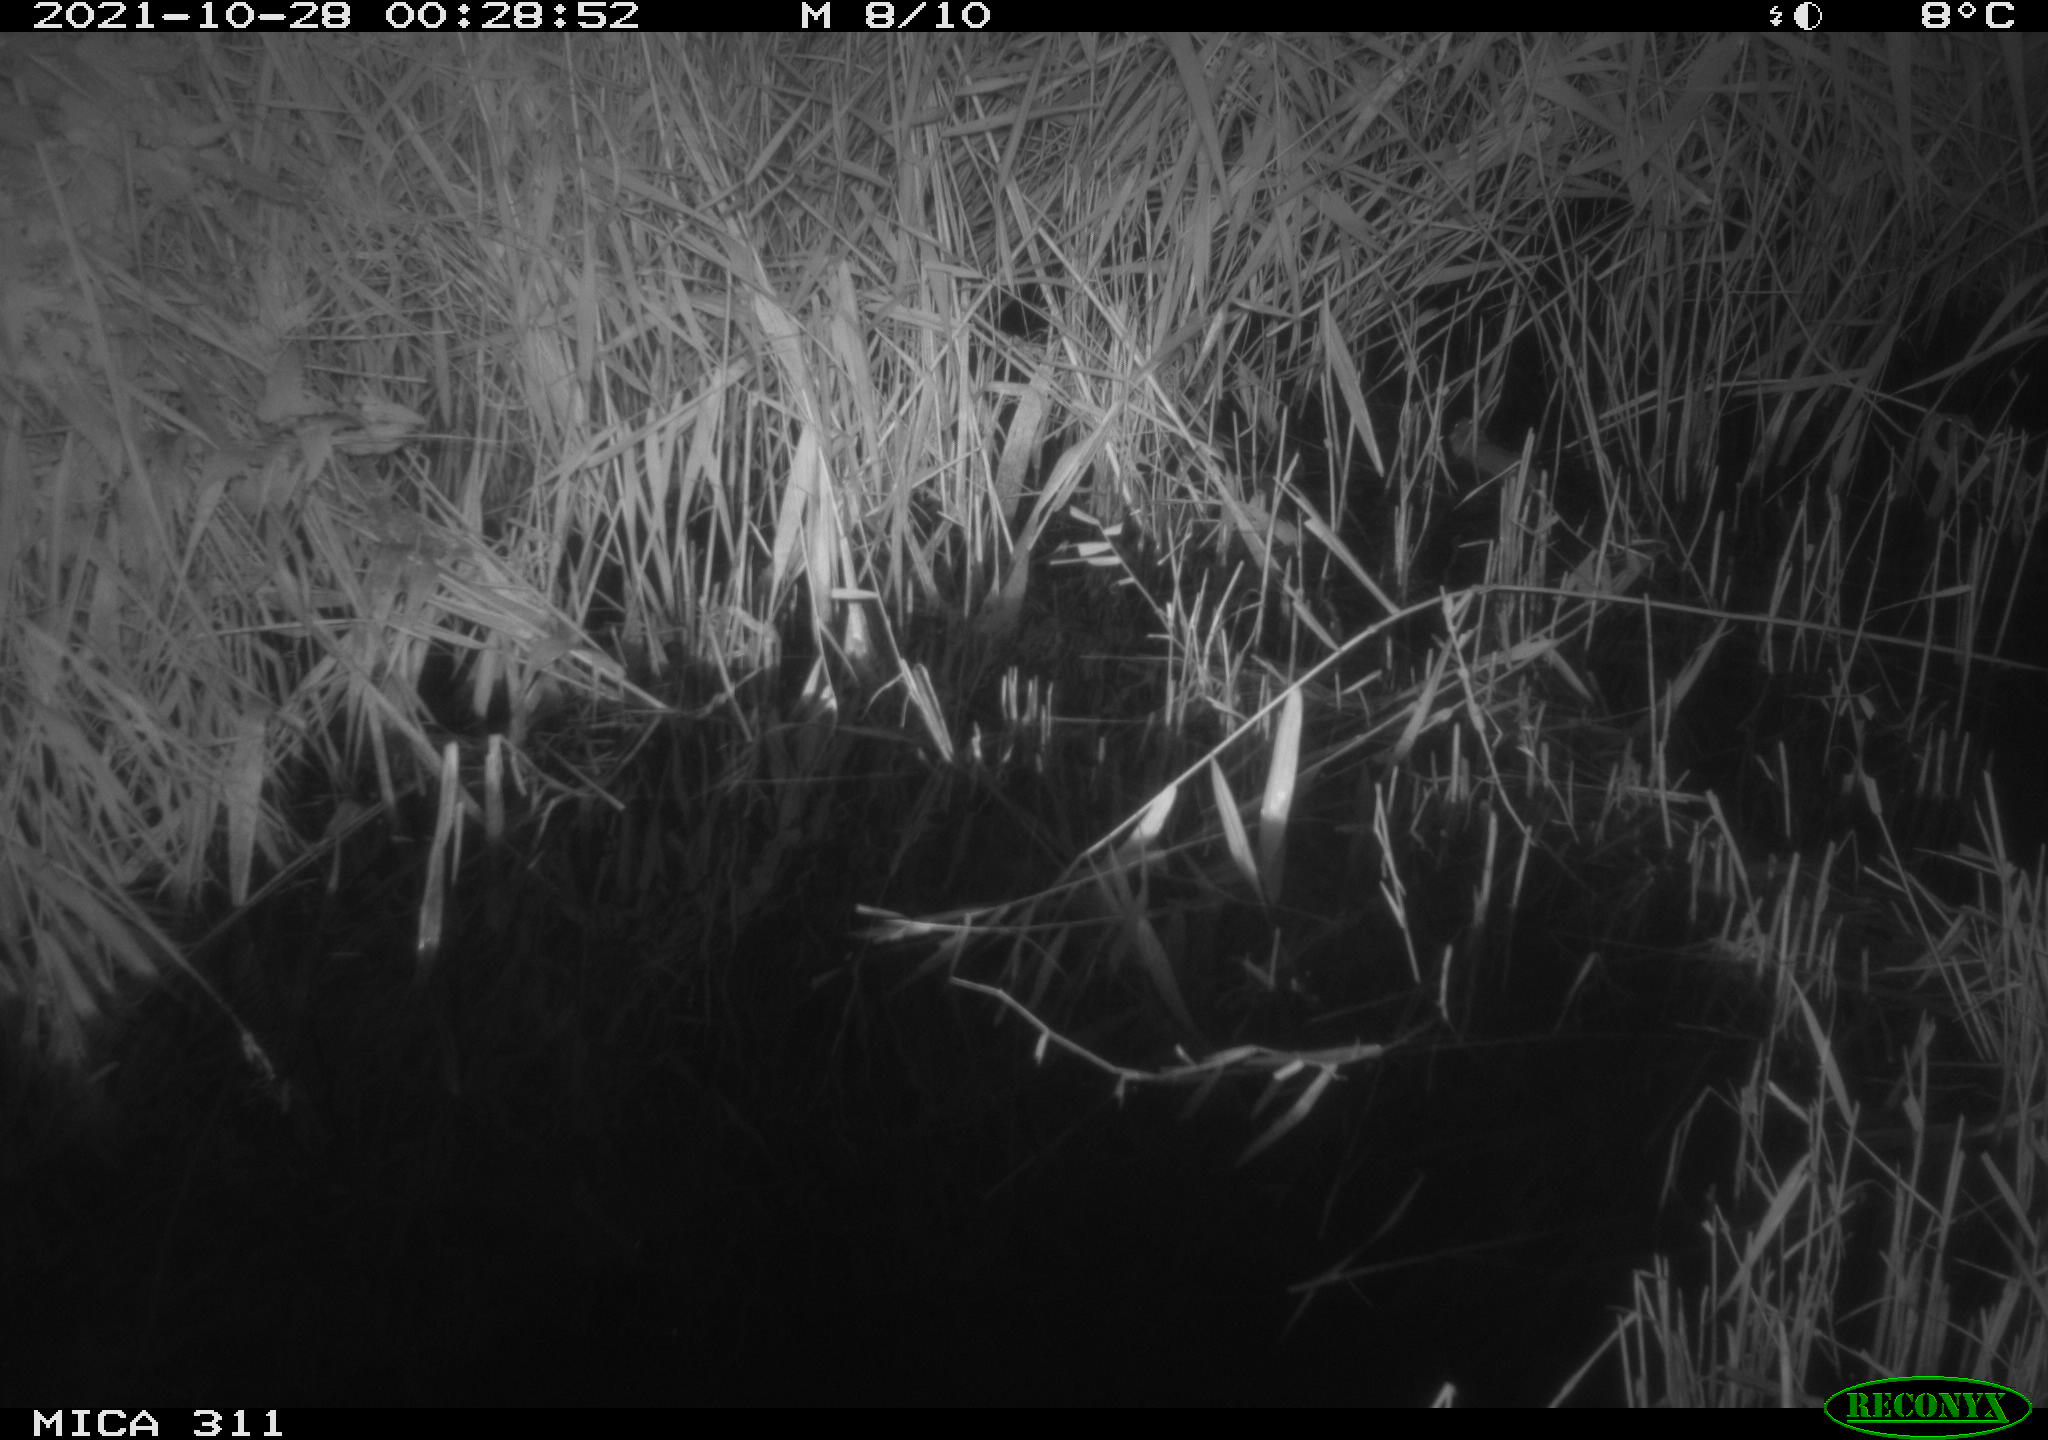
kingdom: Animalia
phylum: Chordata
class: Mammalia
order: Rodentia
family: Muridae
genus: Rattus
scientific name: Rattus norvegicus
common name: Brown rat
